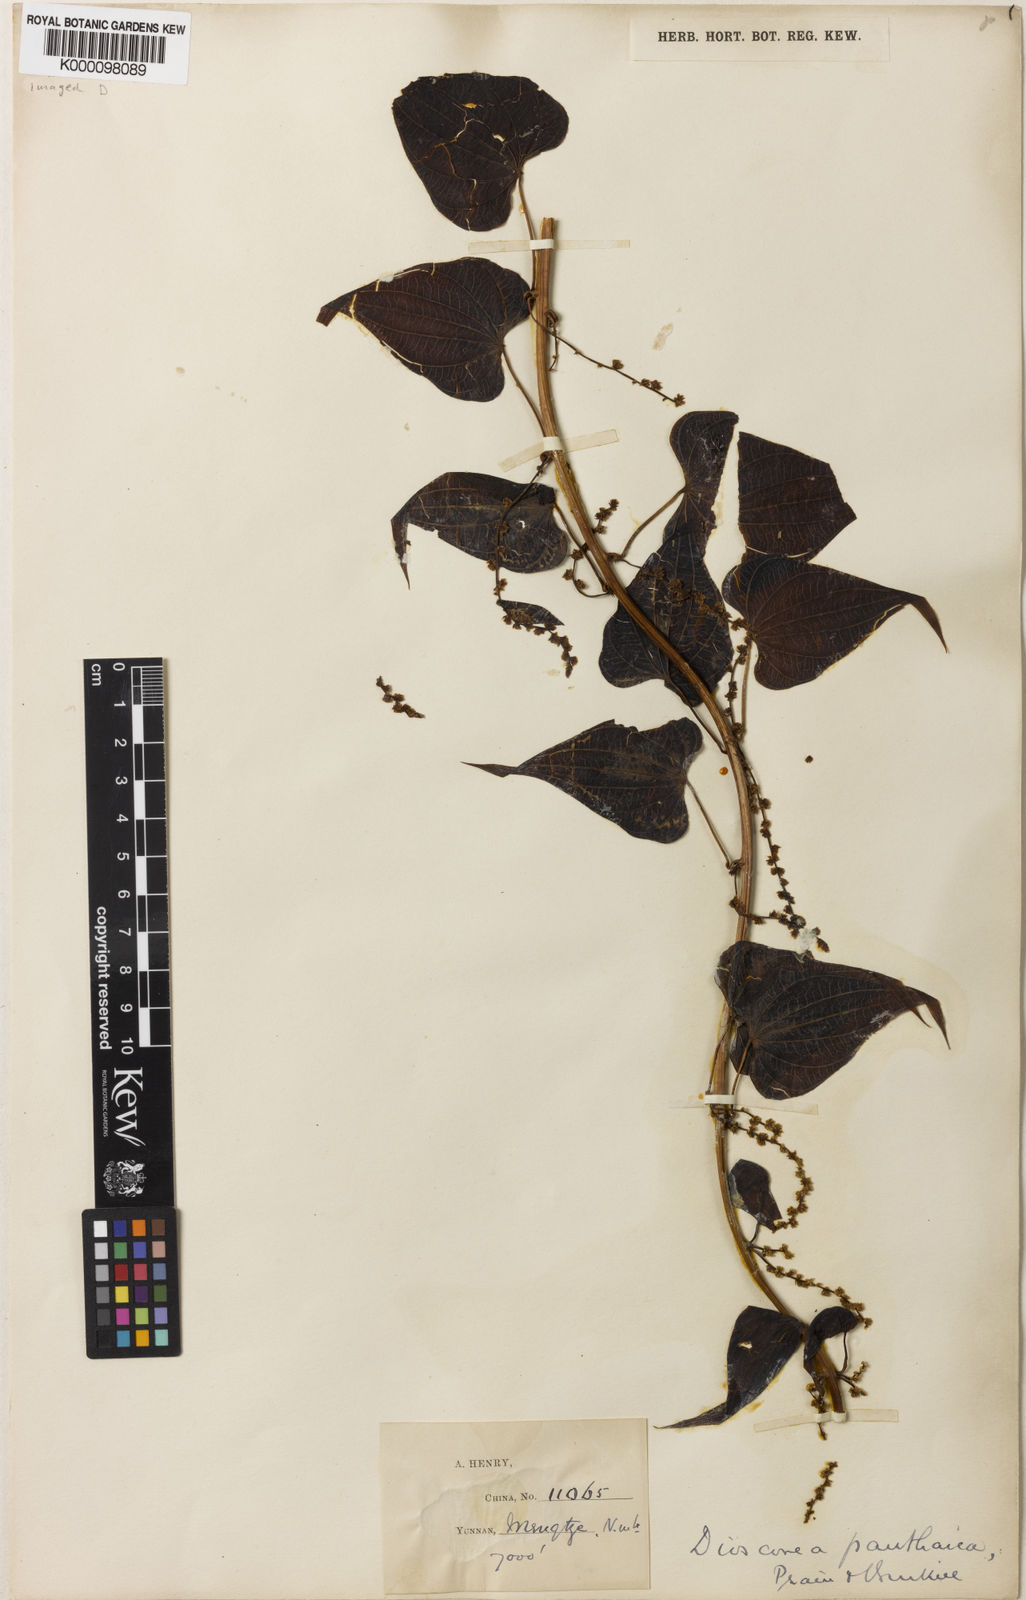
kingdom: Plantae
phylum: Tracheophyta
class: Liliopsida
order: Dioscoreales
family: Dioscoreaceae
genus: Dioscorea
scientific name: Dioscorea panthaica
